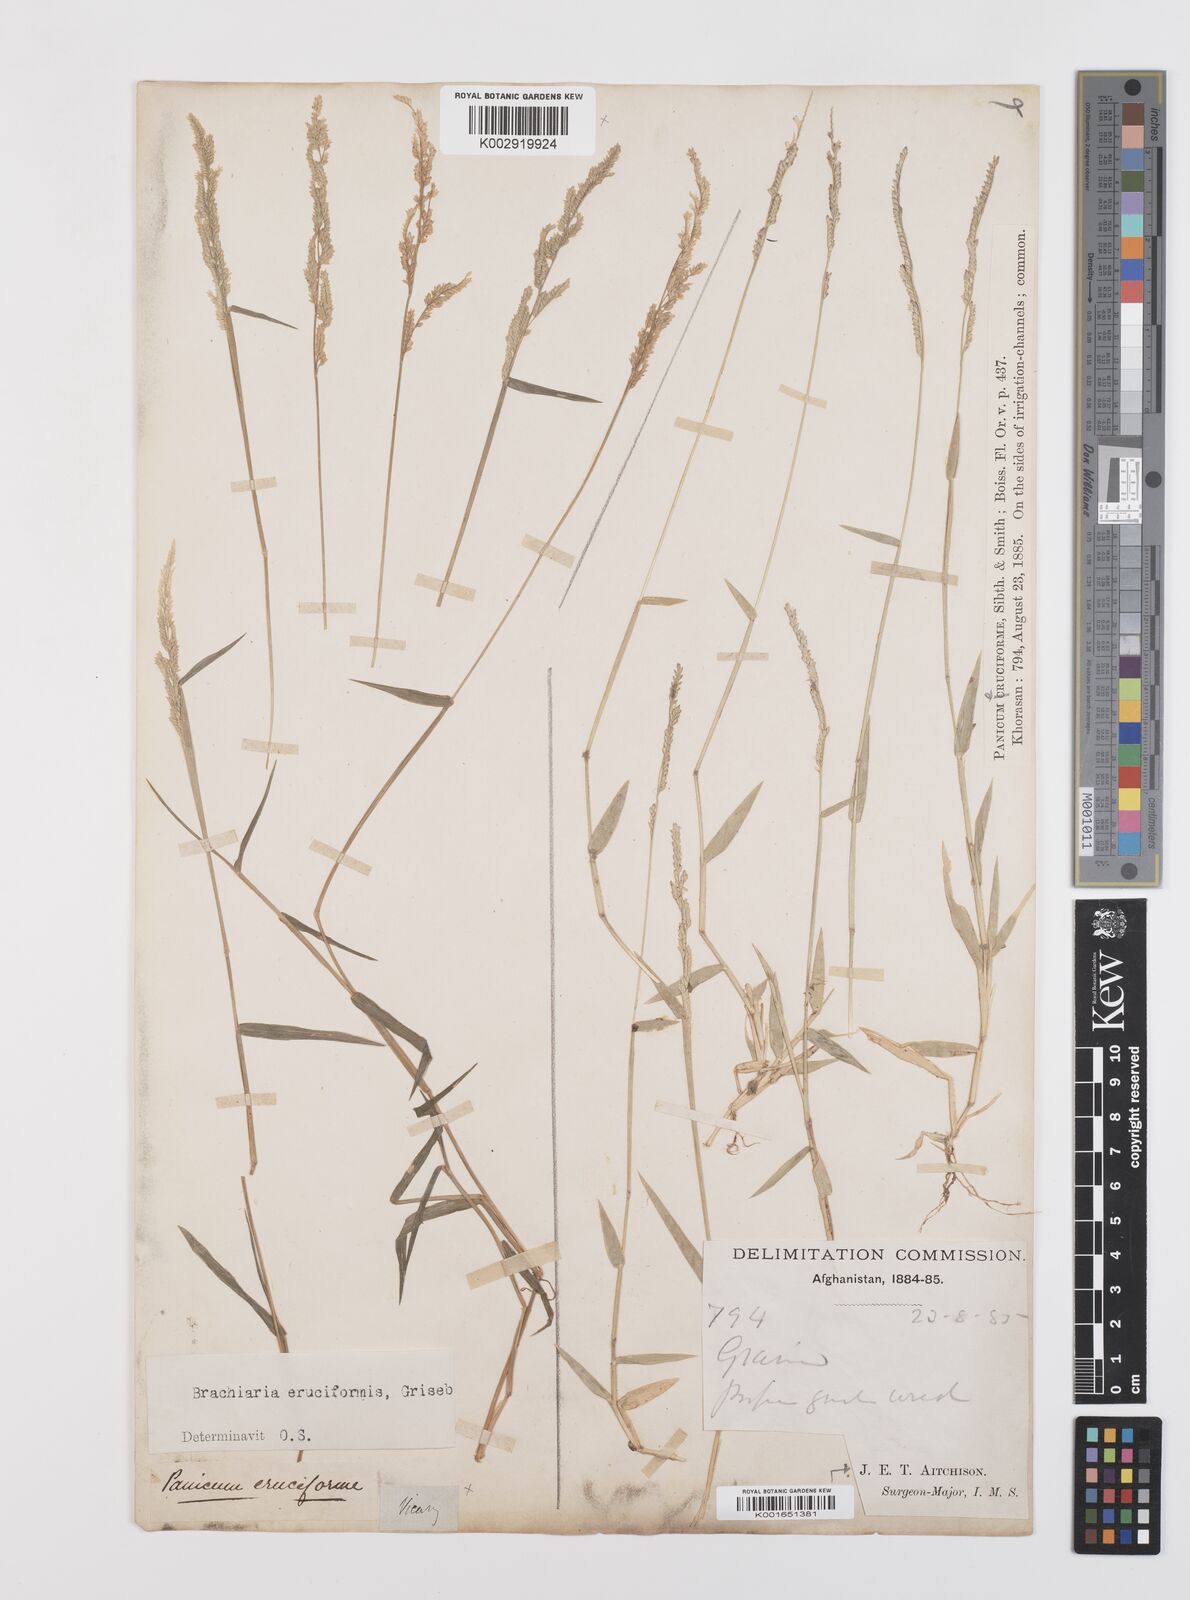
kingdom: Plantae
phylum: Tracheophyta
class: Liliopsida
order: Poales
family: Poaceae
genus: Moorochloa
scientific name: Moorochloa eruciformis
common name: Sweet signalgrass
